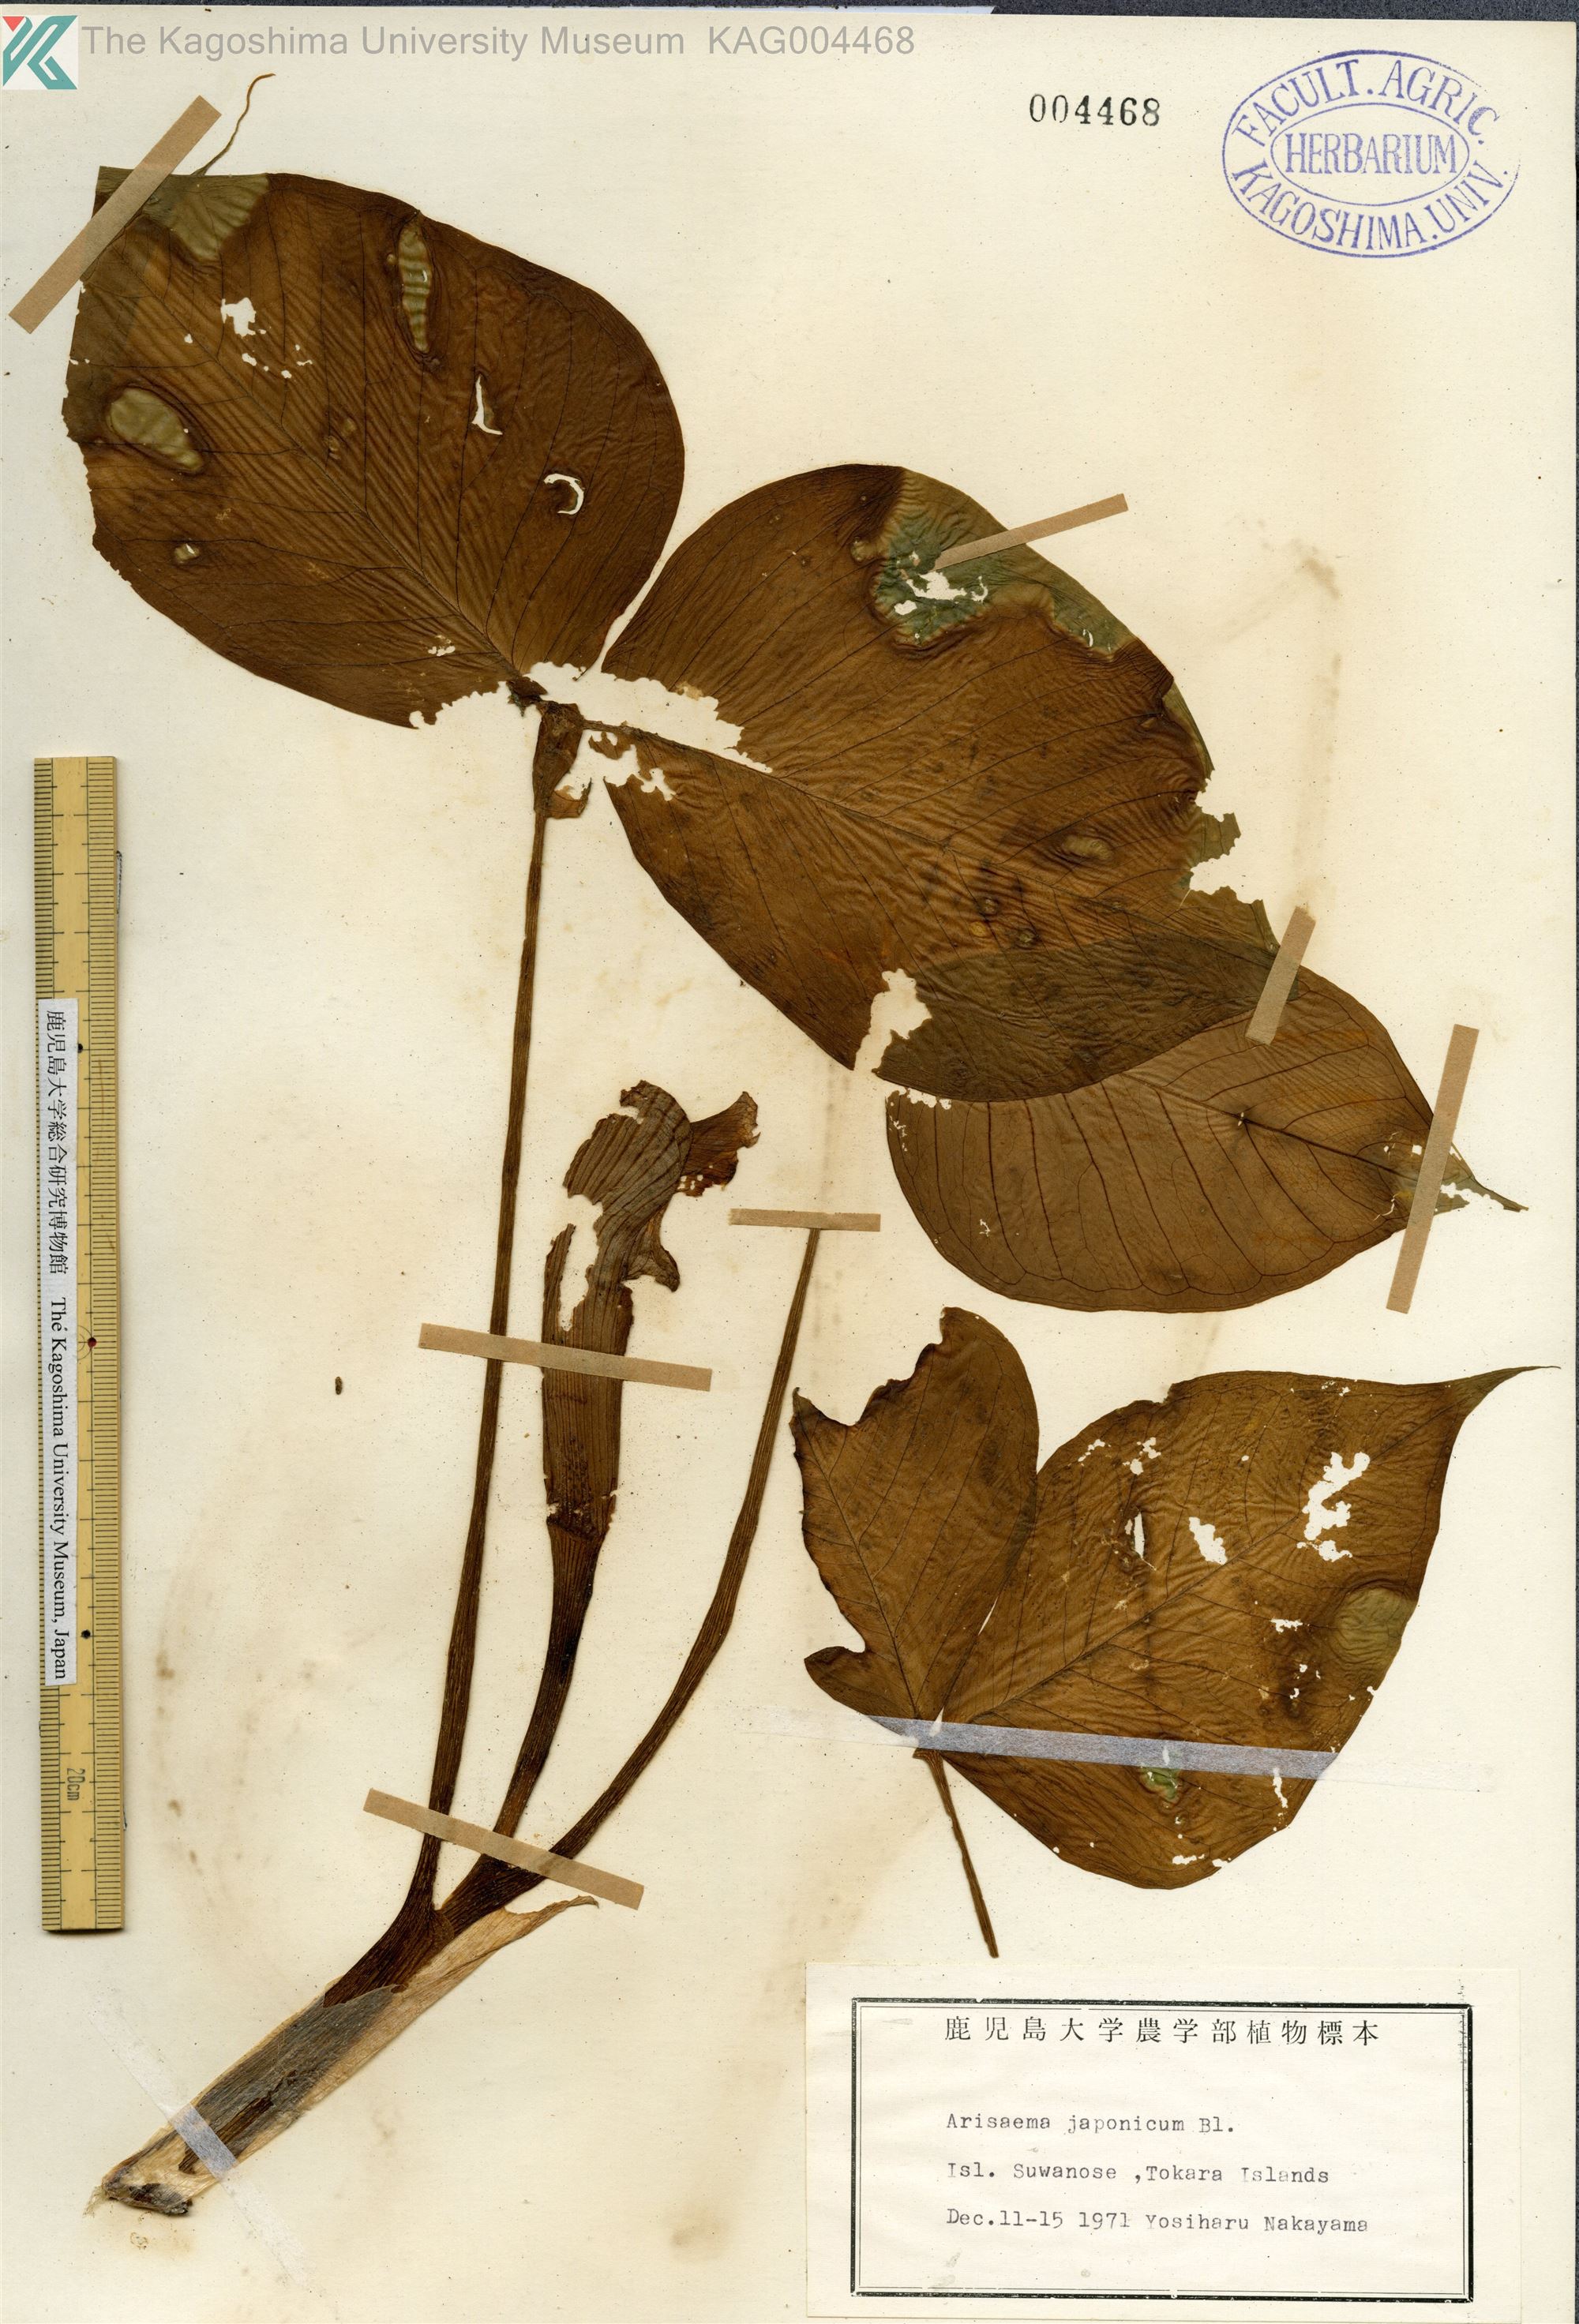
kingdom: Plantae
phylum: Tracheophyta
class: Liliopsida
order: Alismatales
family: Araceae
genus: Arisaema
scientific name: Arisaema ringens
